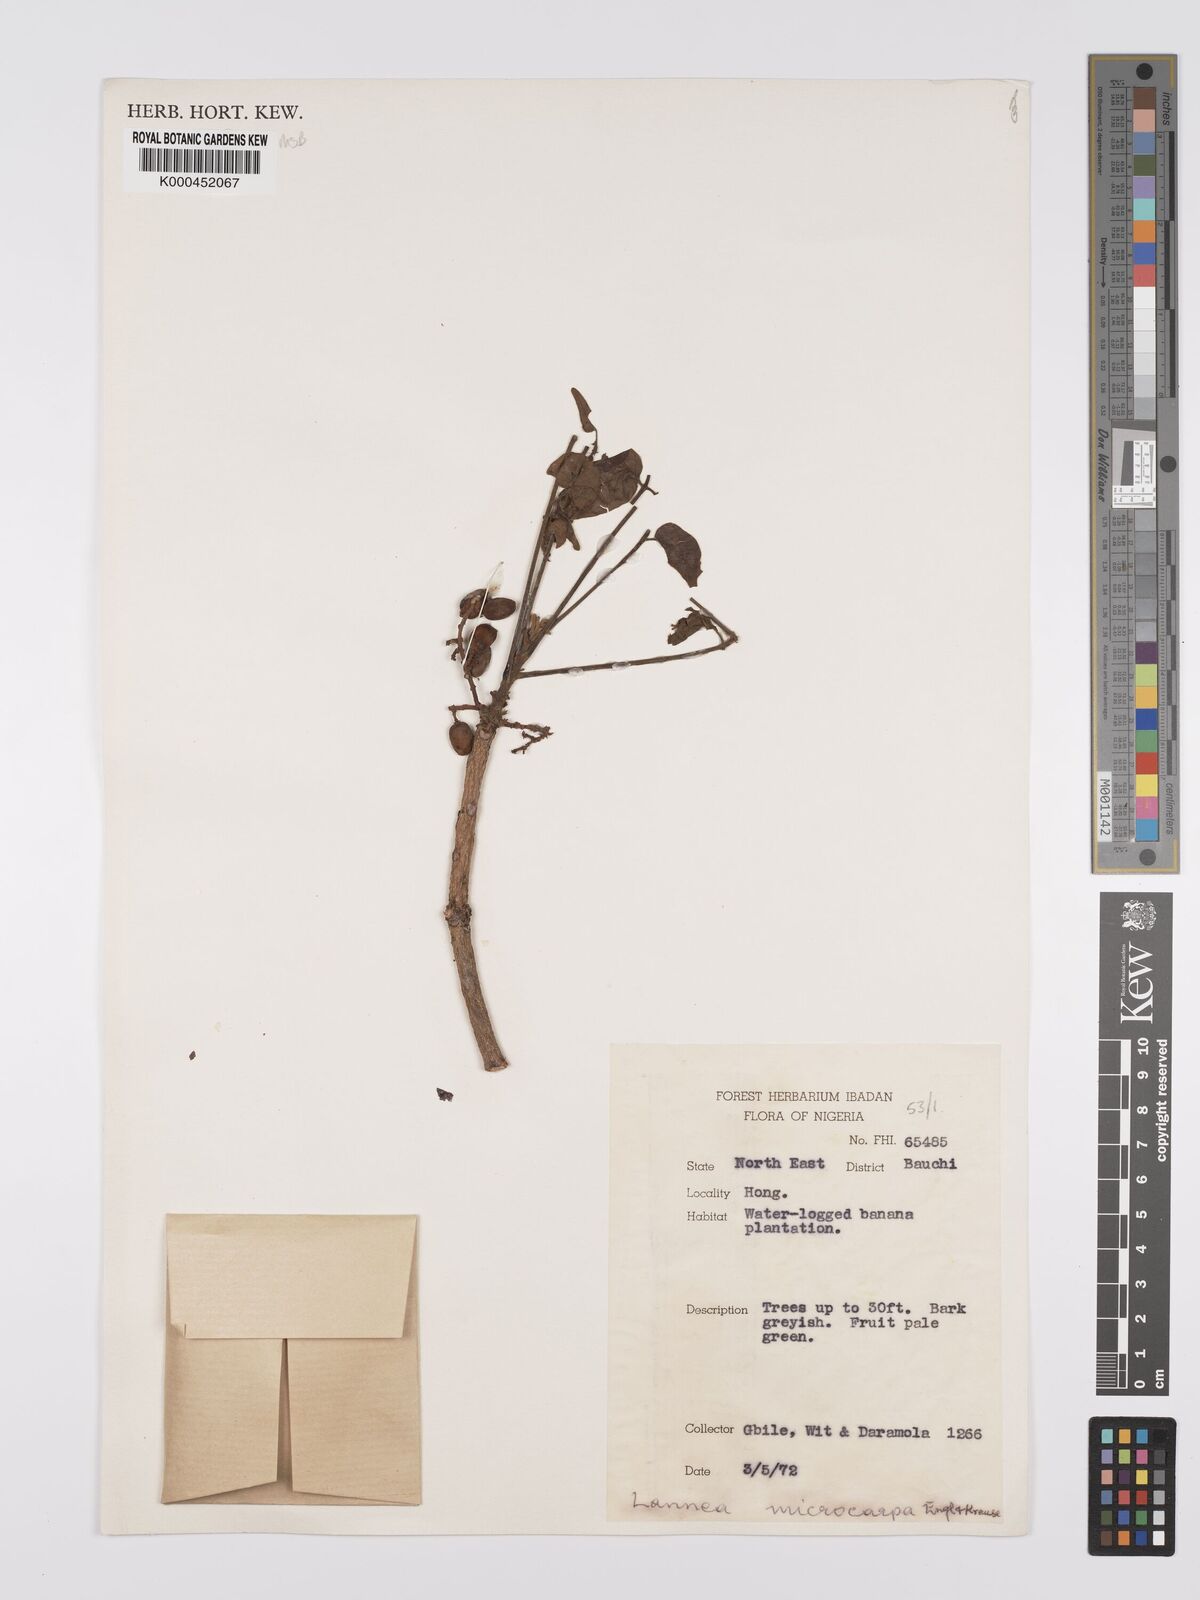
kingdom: Plantae
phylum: Tracheophyta
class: Magnoliopsida
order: Sapindales
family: Anacardiaceae
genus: Lannea
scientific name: Lannea microcarpa
